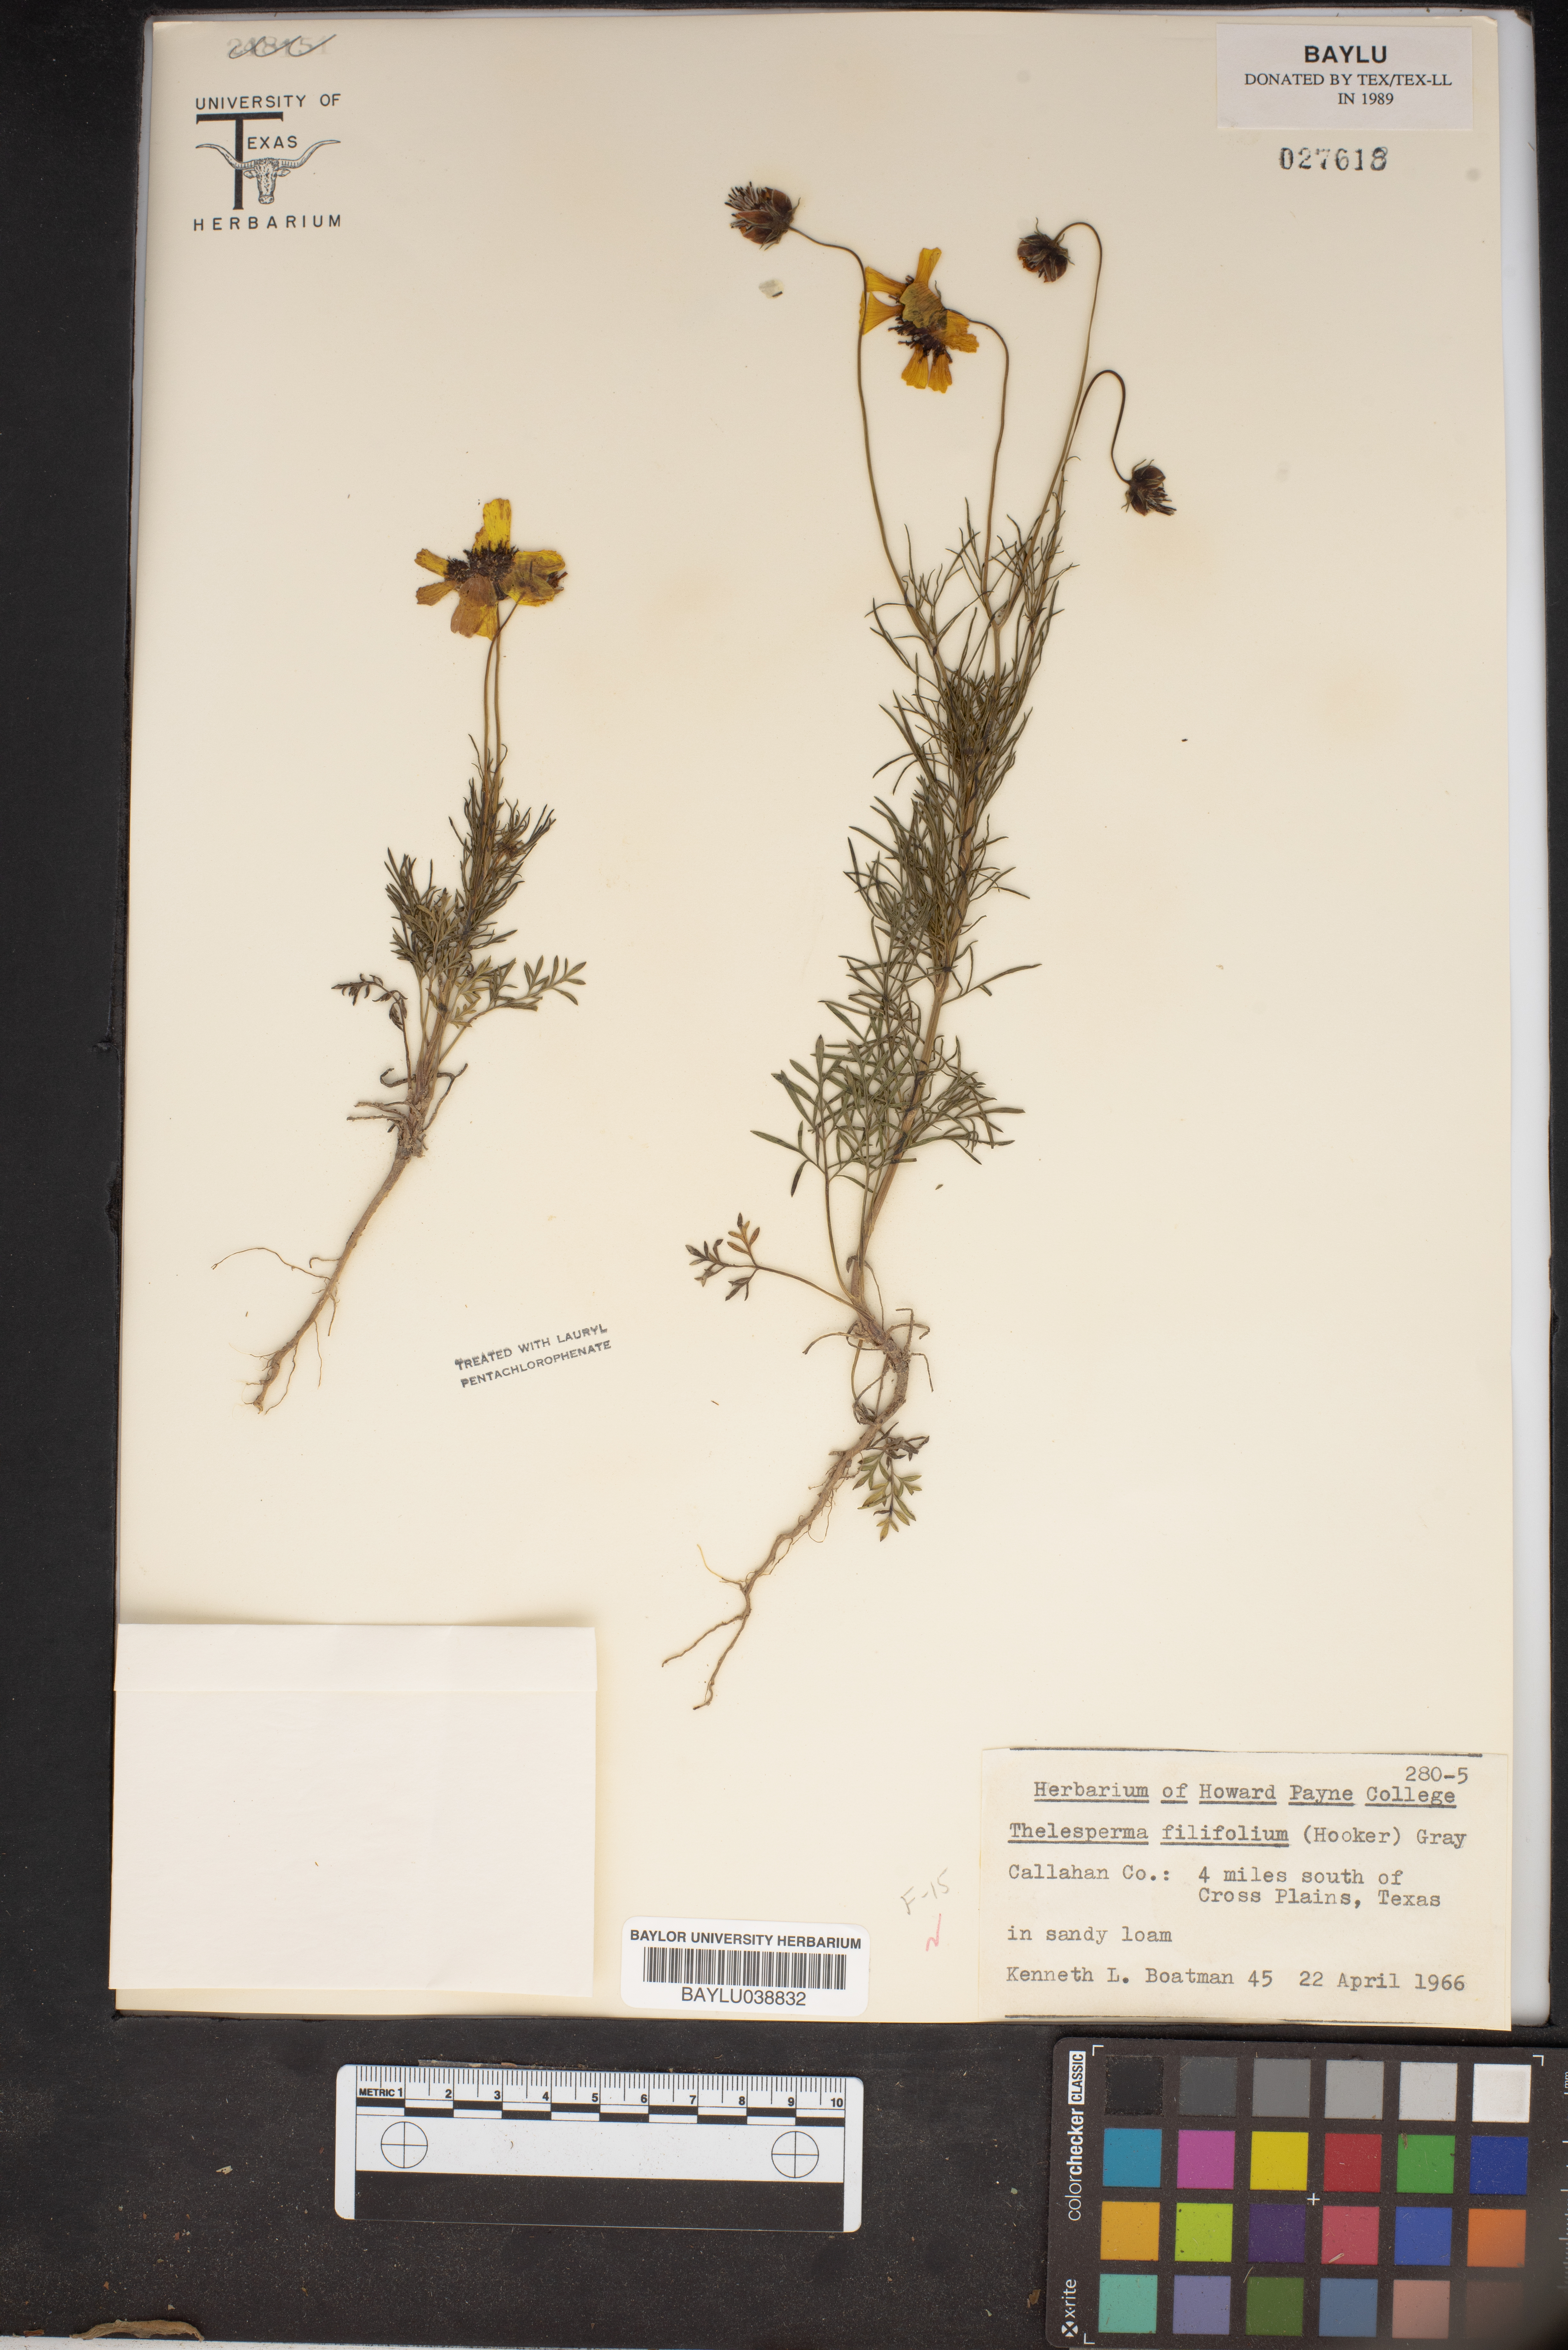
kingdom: Plantae
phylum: Tracheophyta
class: Magnoliopsida
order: Asterales
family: Asteraceae
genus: Thelesperma
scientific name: Thelesperma filifolium
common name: Stiff greenthread
